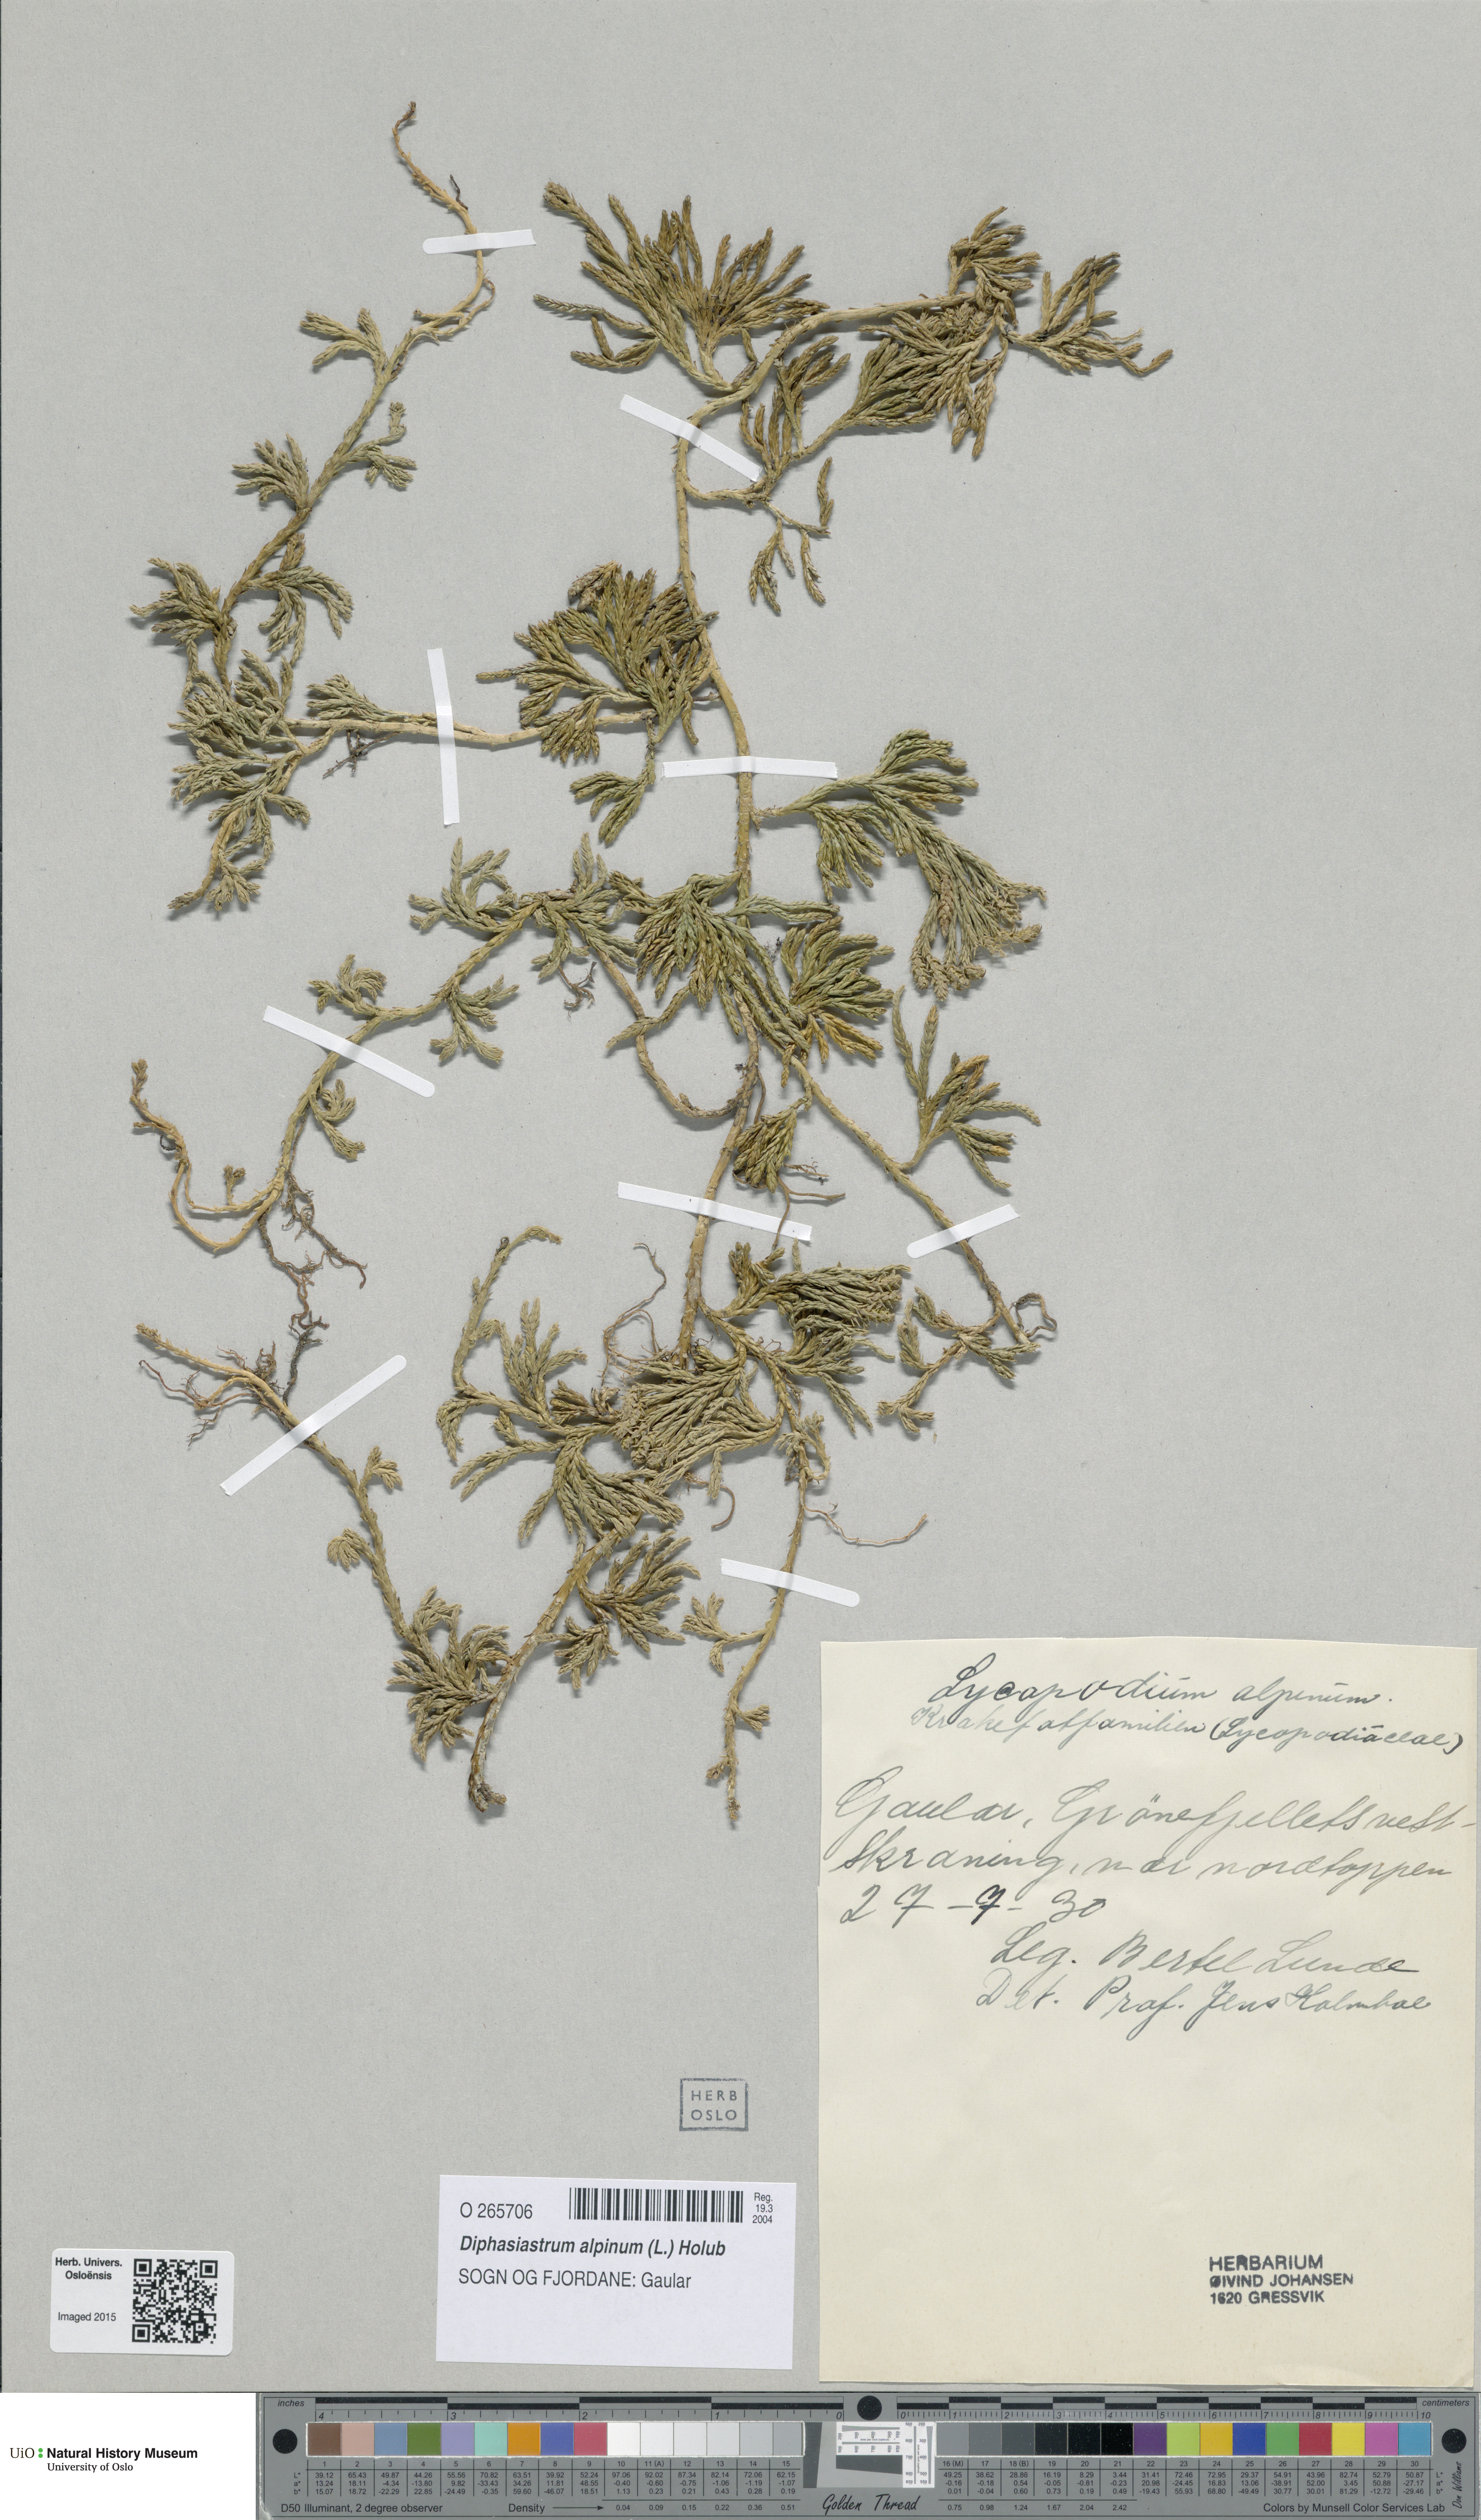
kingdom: Plantae
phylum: Tracheophyta
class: Lycopodiopsida
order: Lycopodiales
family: Lycopodiaceae
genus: Diphasiastrum
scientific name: Diphasiastrum alpinum
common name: Alpine clubmoss
